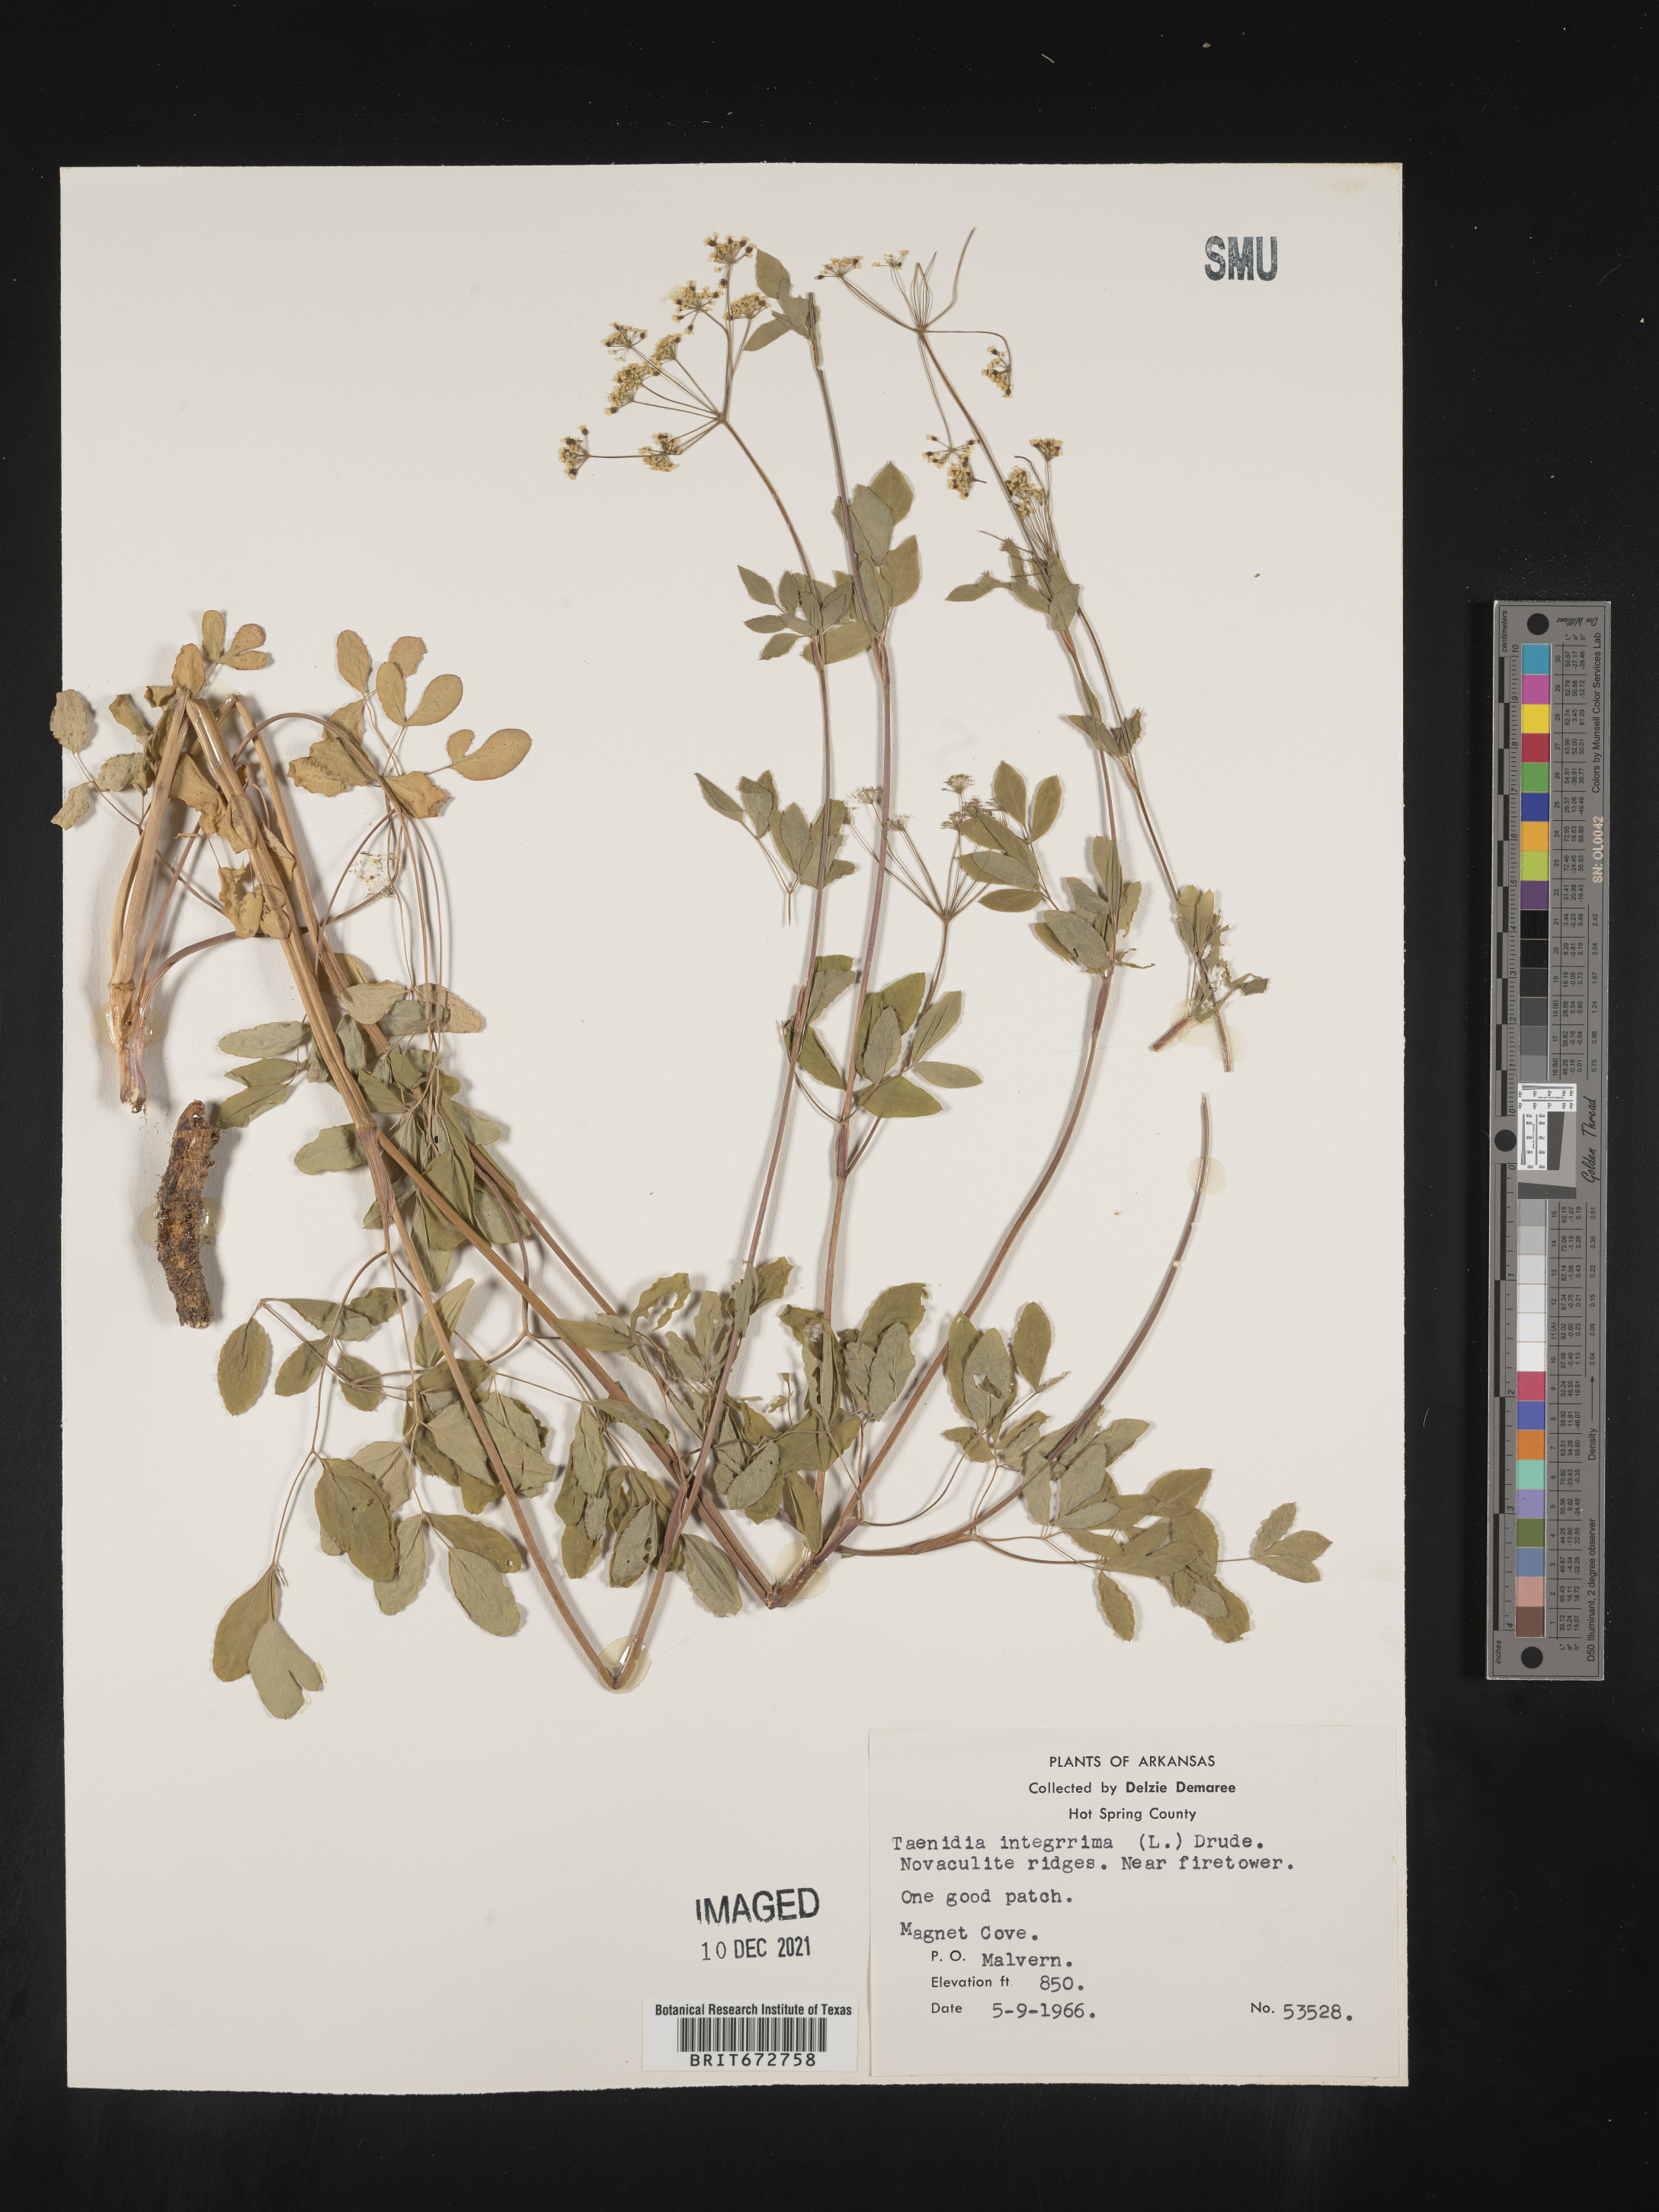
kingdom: Plantae
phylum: Tracheophyta
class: Magnoliopsida
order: Apiales
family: Apiaceae
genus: Taenidia
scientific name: Taenidia integerrima
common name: Golden alexander
